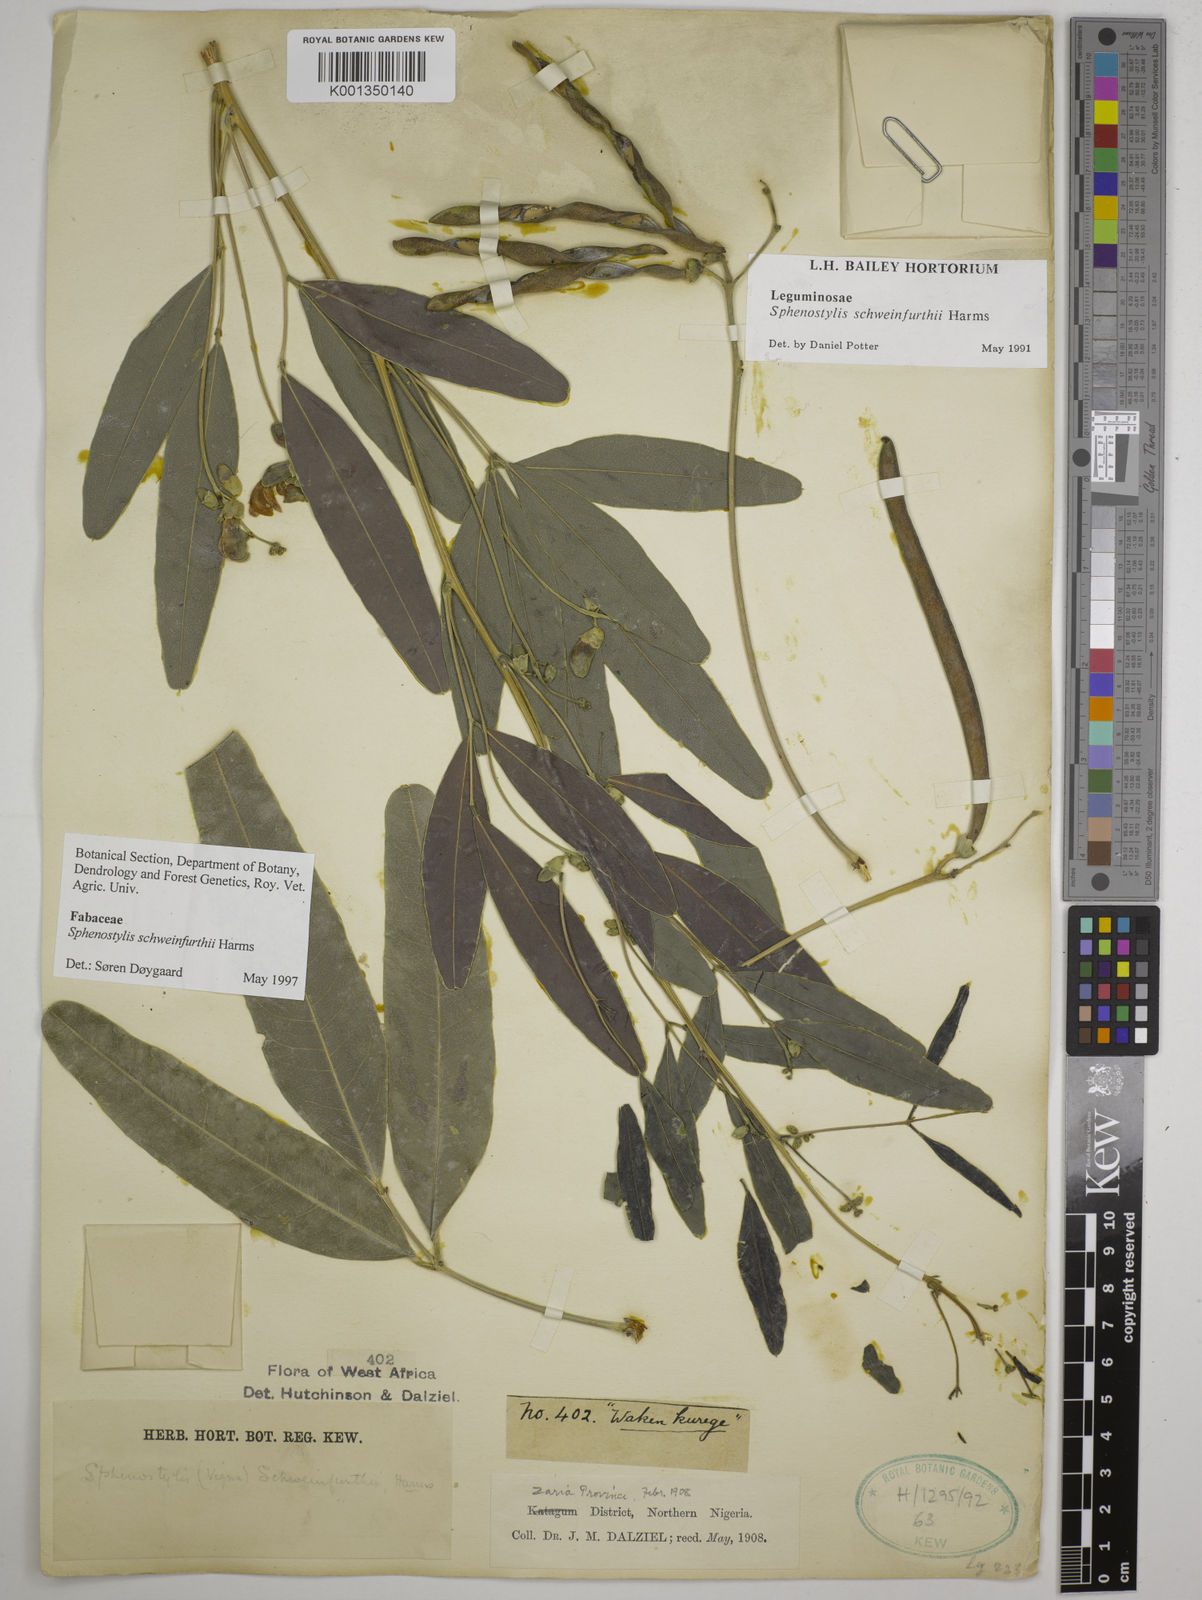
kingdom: Plantae
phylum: Tracheophyta
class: Magnoliopsida
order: Fabales
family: Fabaceae
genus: Sphenostylis
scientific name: Sphenostylis schweinfurthii
